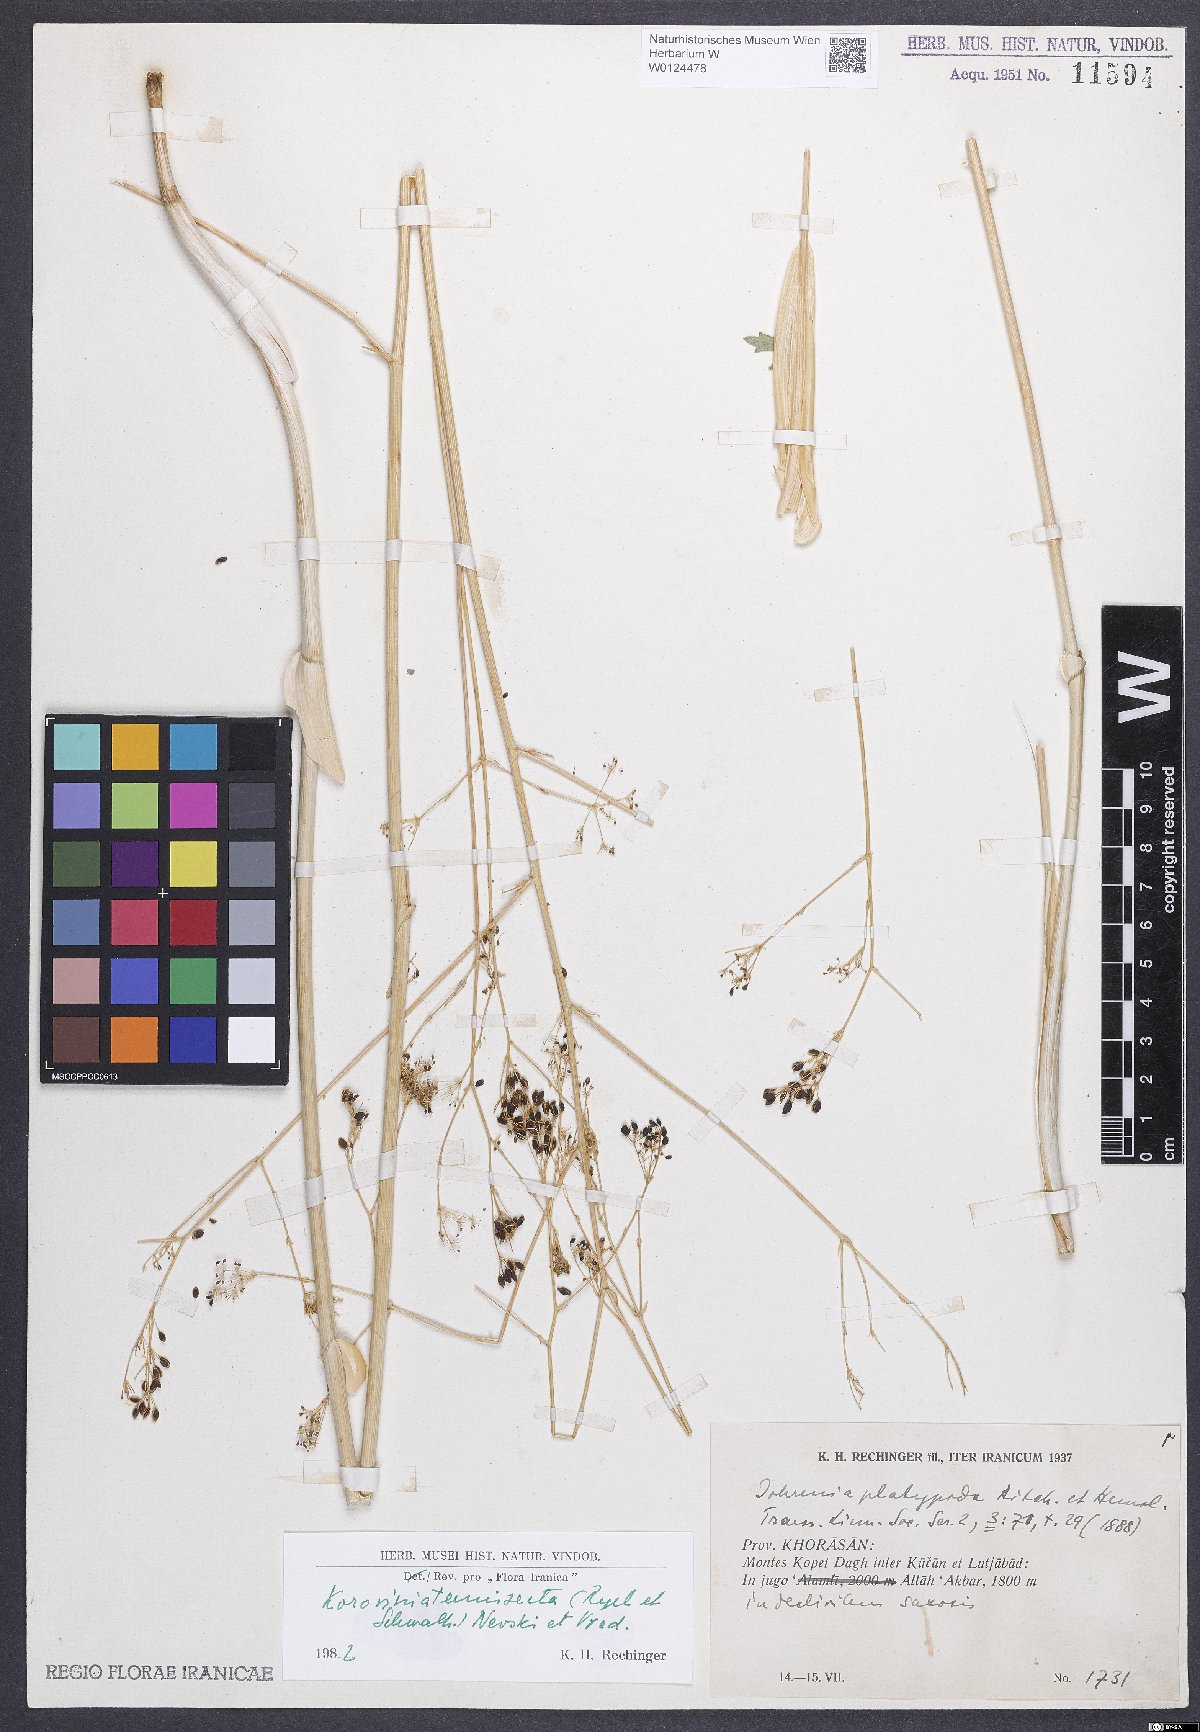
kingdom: Plantae
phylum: Tracheophyta
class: Magnoliopsida
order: Apiales
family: Apiaceae
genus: Galagania
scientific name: Galagania tenuisecta
